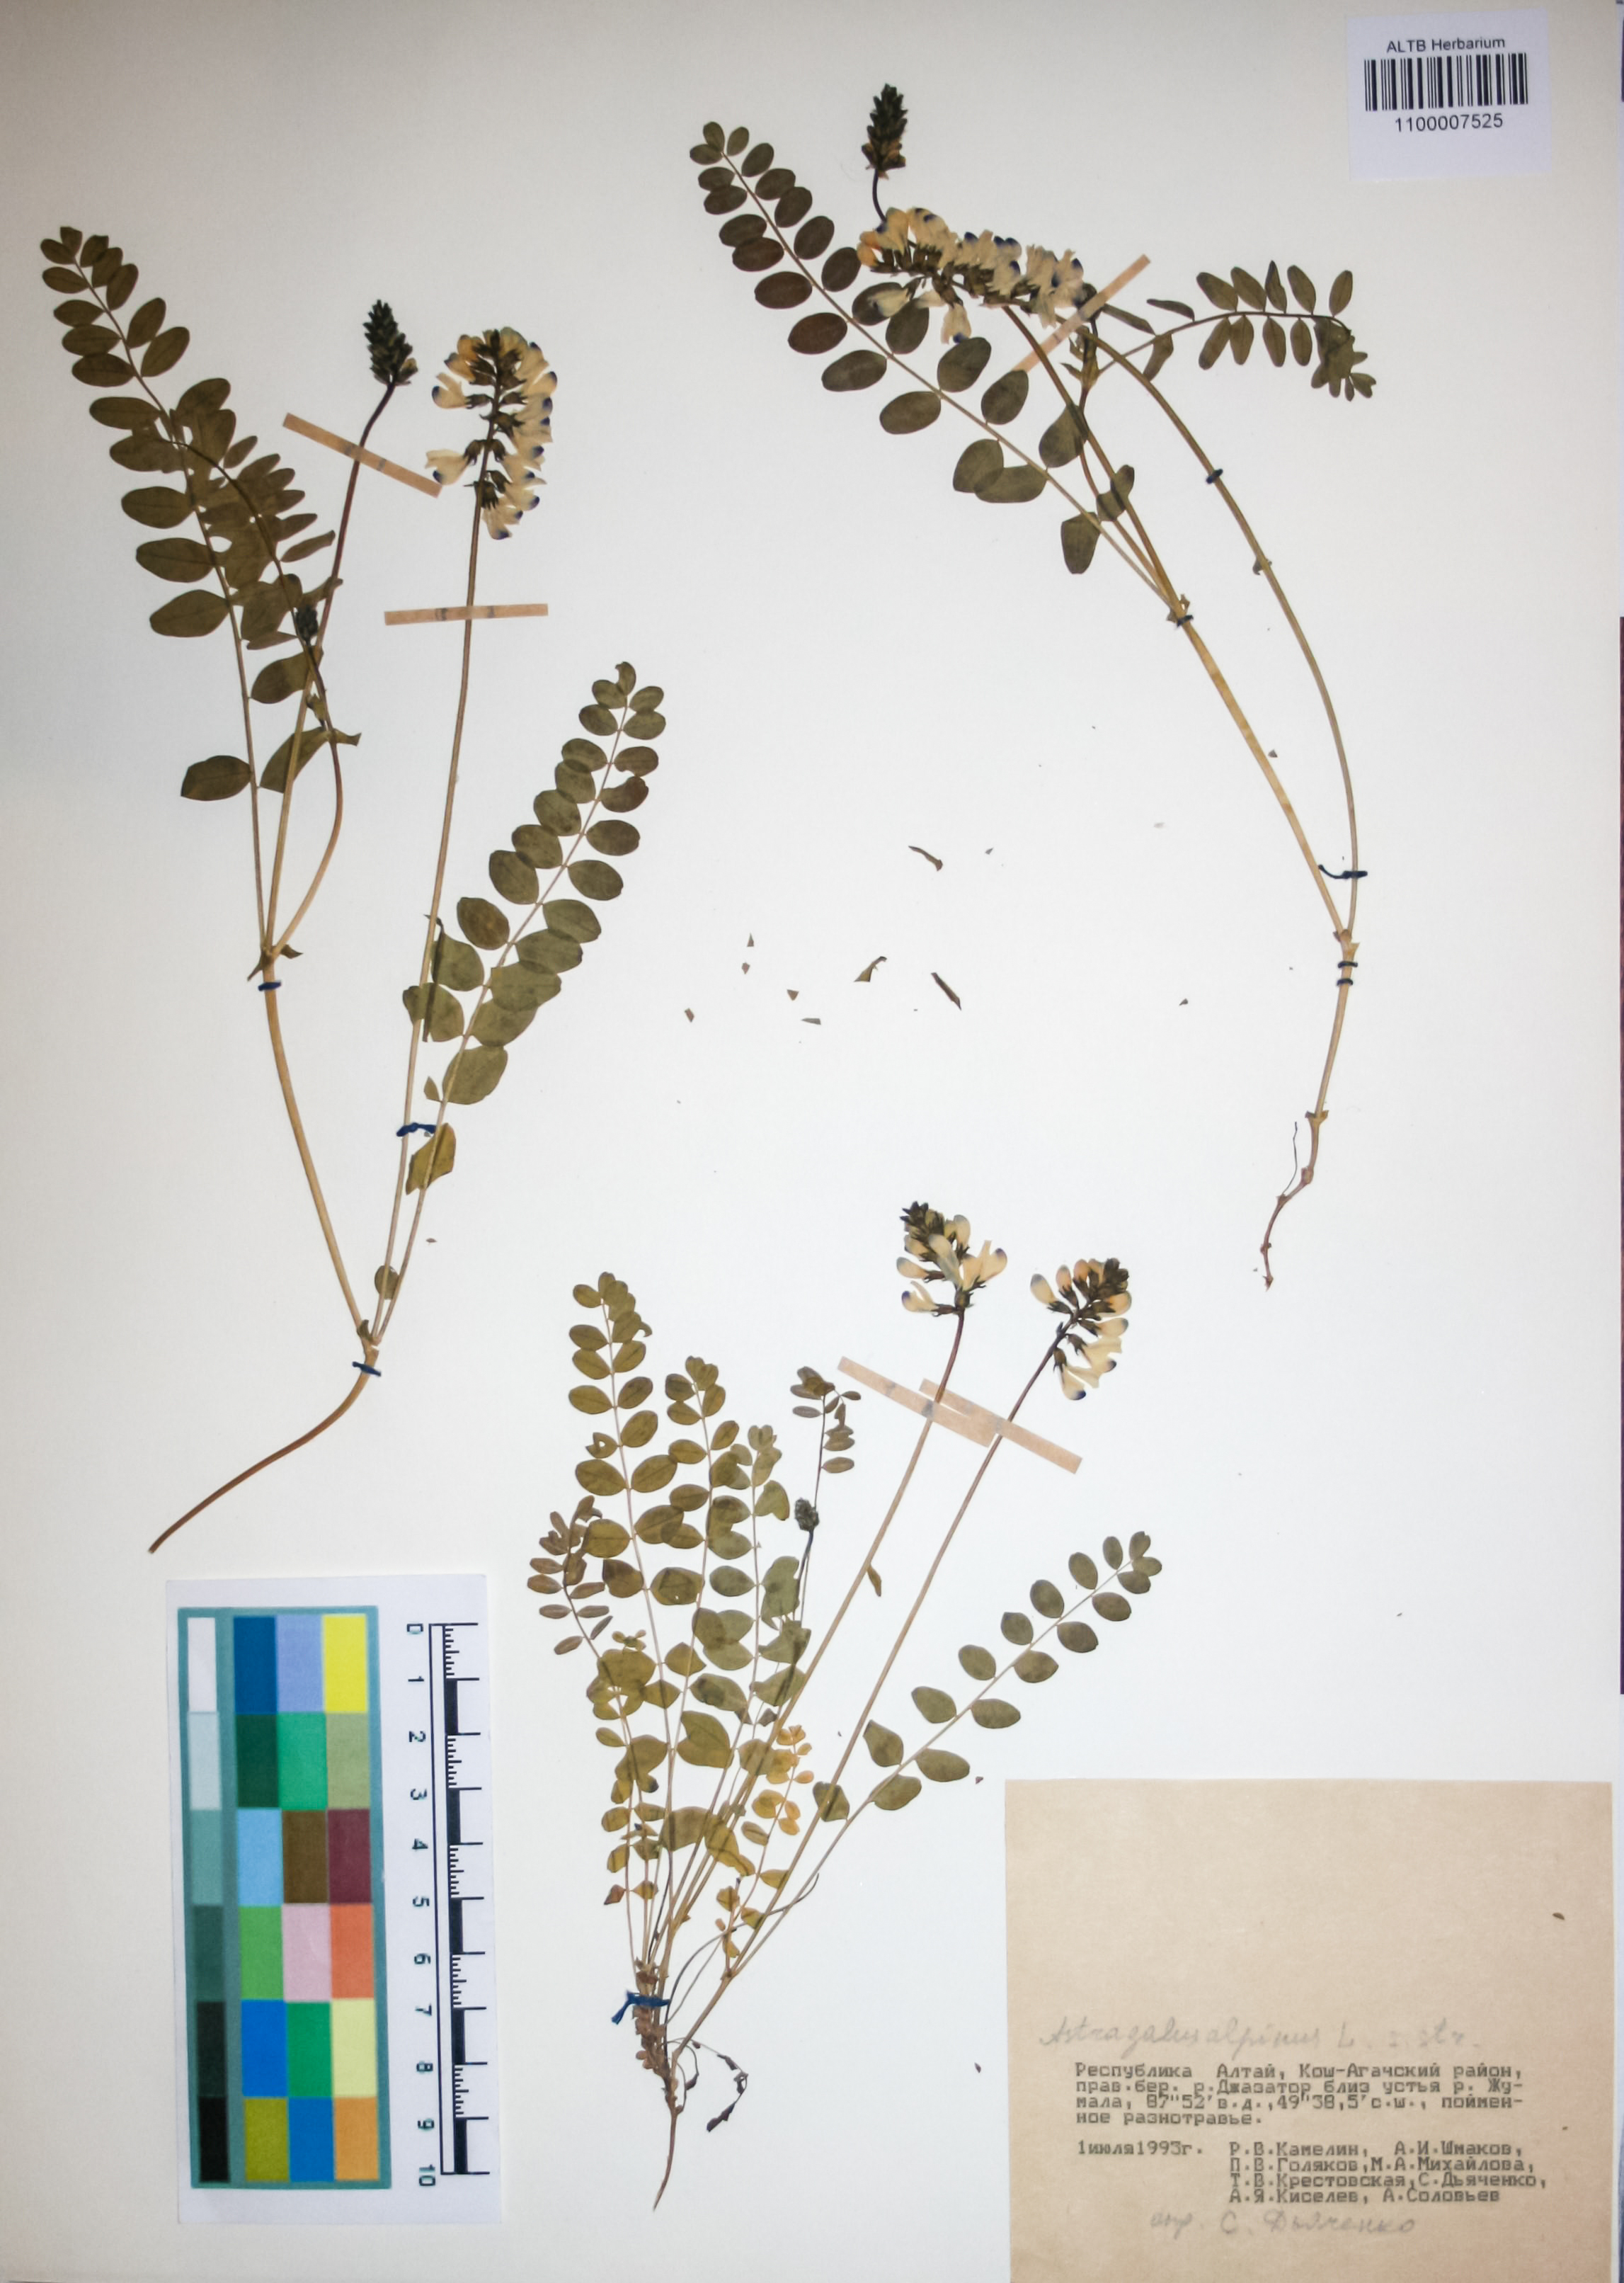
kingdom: Plantae
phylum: Tracheophyta
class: Magnoliopsida
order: Fabales
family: Fabaceae
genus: Astragalus
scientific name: Astragalus alpinus
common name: Alpine milk-vetch
